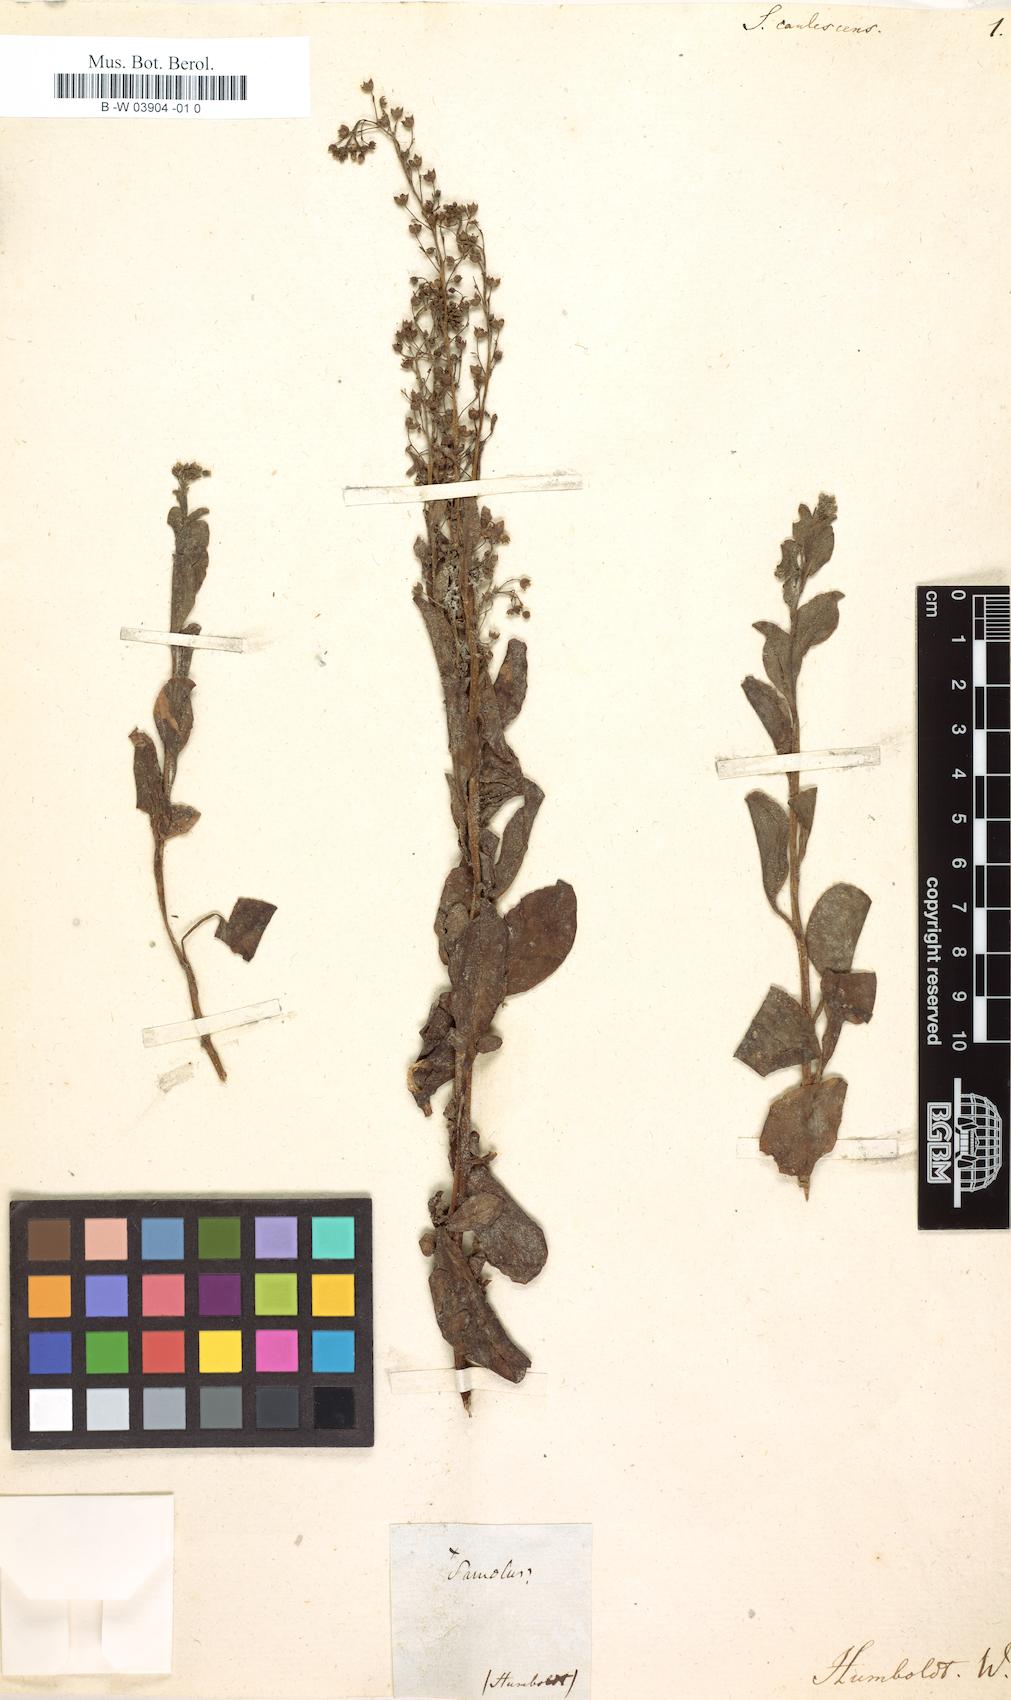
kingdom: Plantae
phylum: Tracheophyta
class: Magnoliopsida
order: Ericales
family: Primulaceae
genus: Samolus
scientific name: Samolus valerandi
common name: Brookweed
